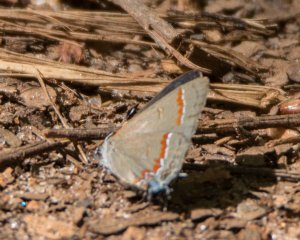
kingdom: Animalia
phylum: Arthropoda
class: Insecta
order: Lepidoptera
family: Lycaenidae
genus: Calycopis
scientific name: Calycopis cecrops
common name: Red-banded Hairstreak
